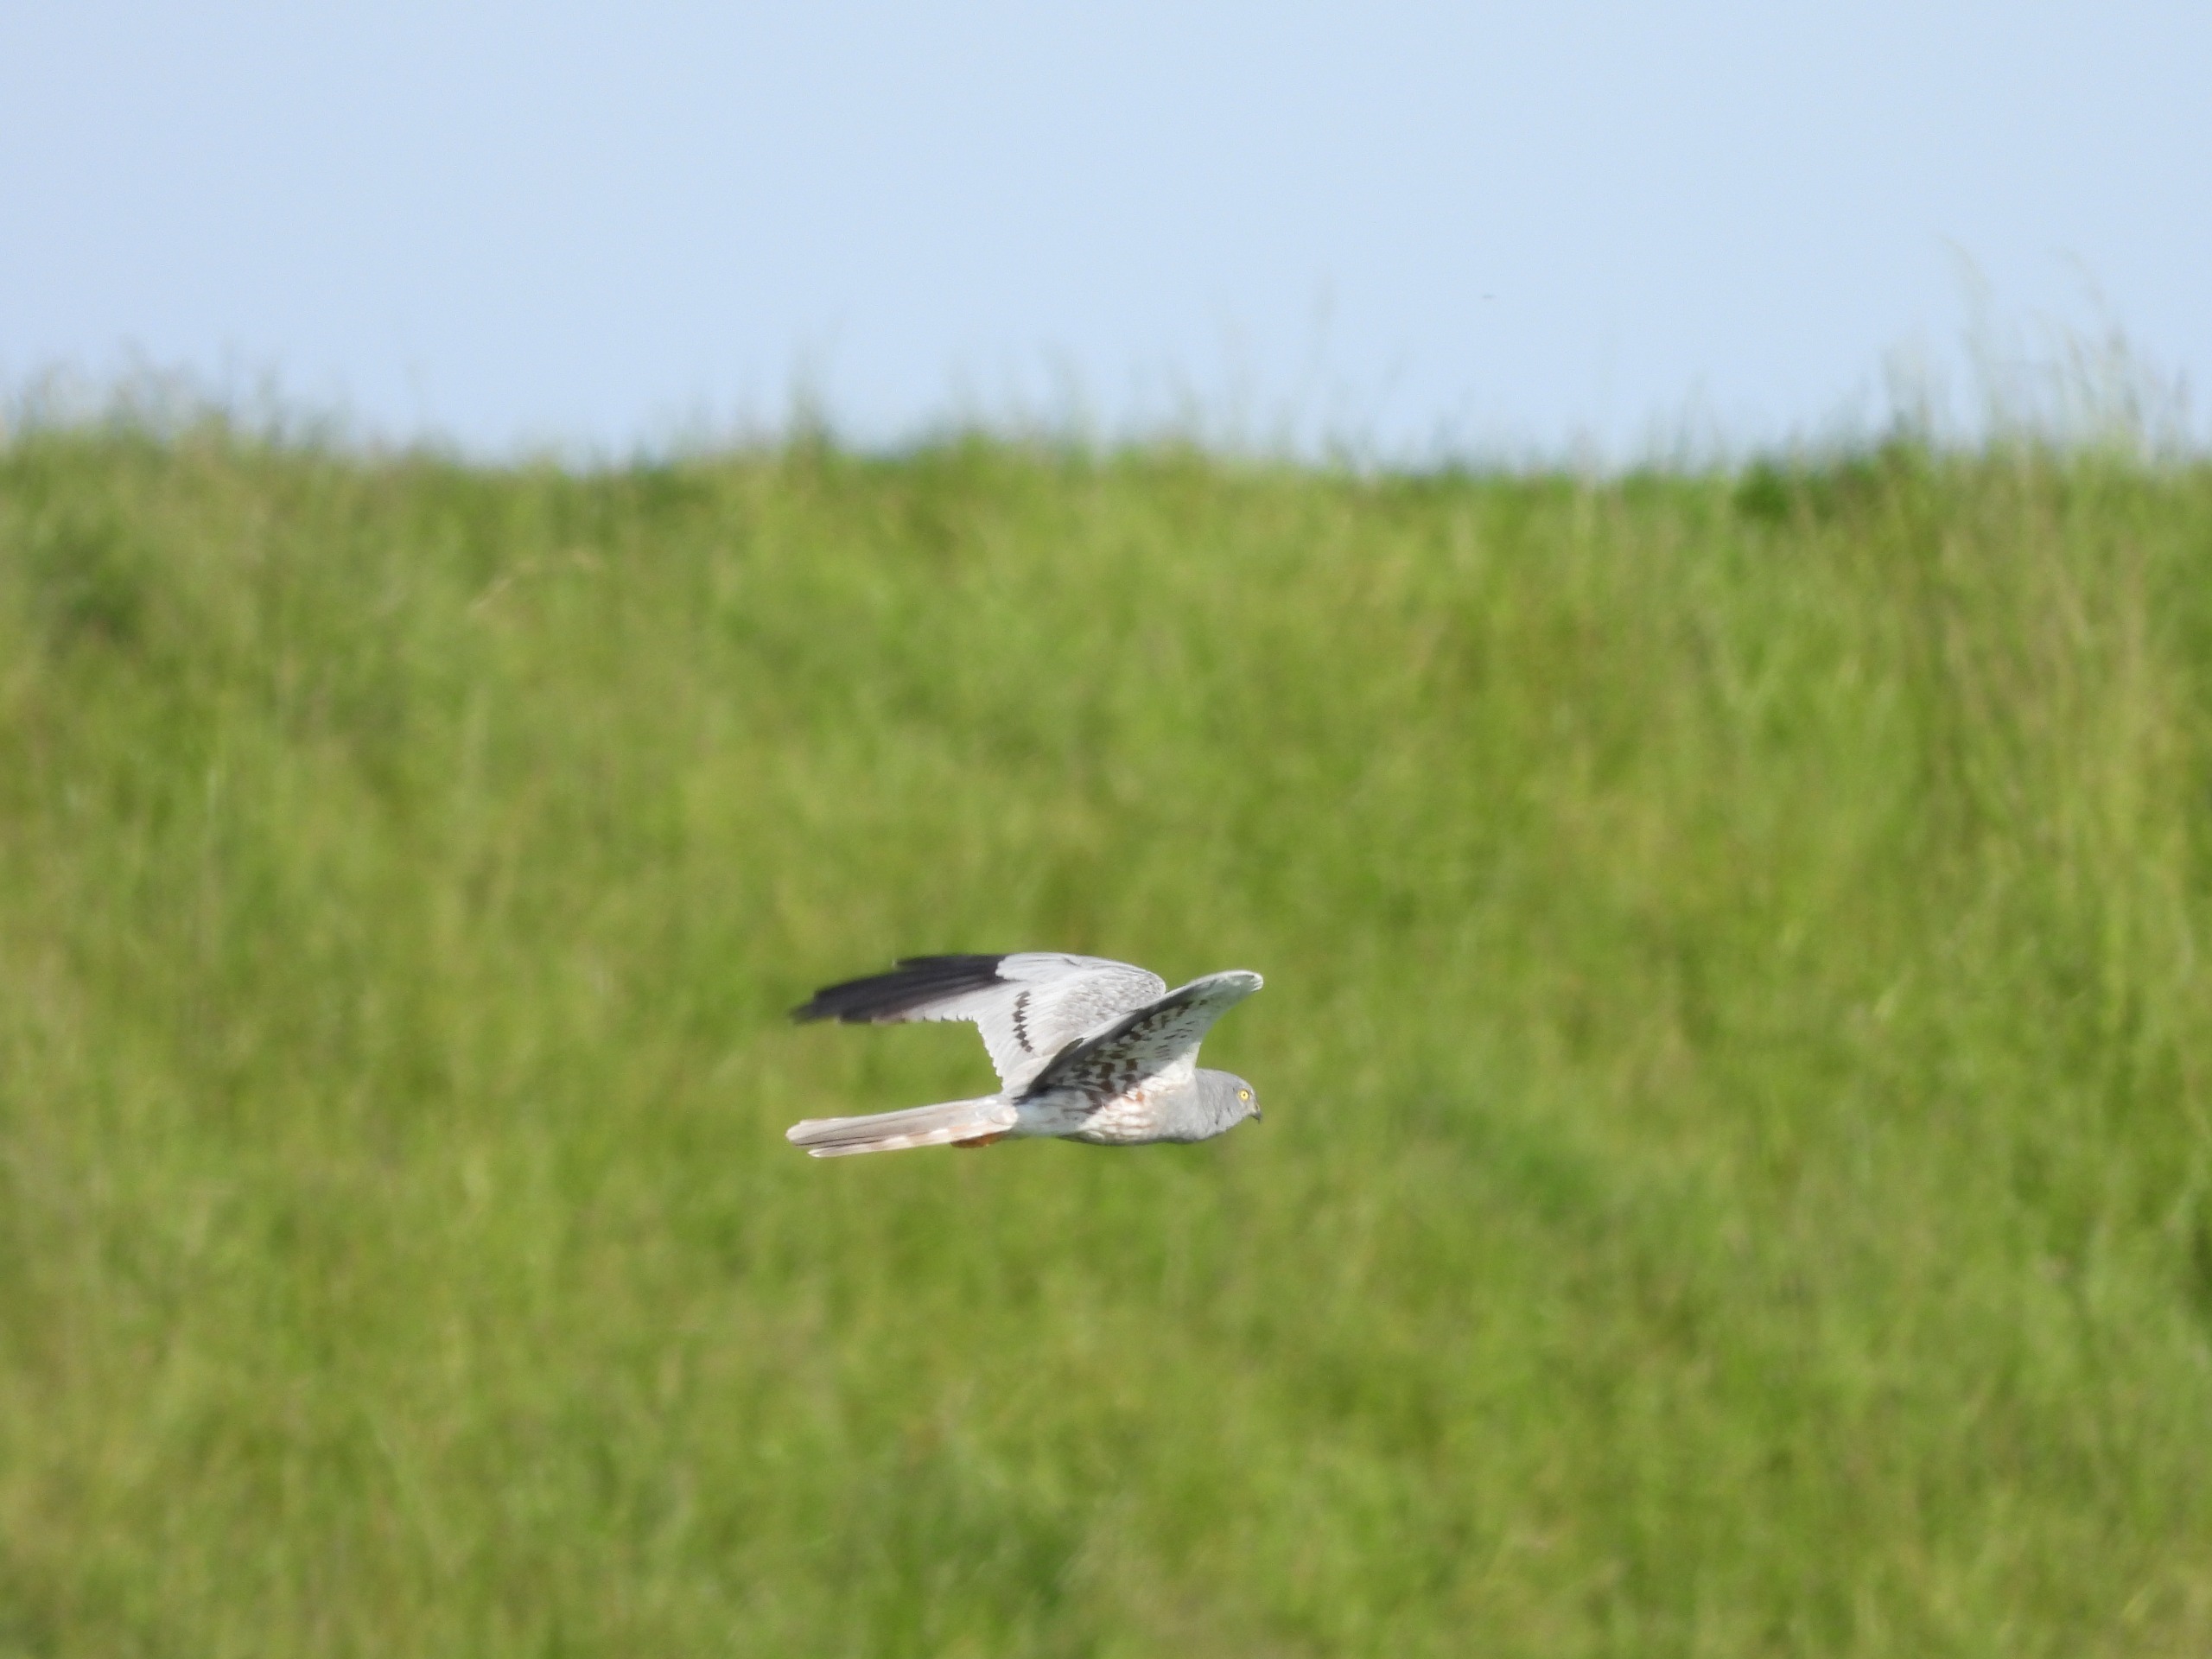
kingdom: Animalia
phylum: Chordata
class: Aves
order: Accipitriformes
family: Accipitridae
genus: Circus
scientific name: Circus pygargus
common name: Hedehøg
